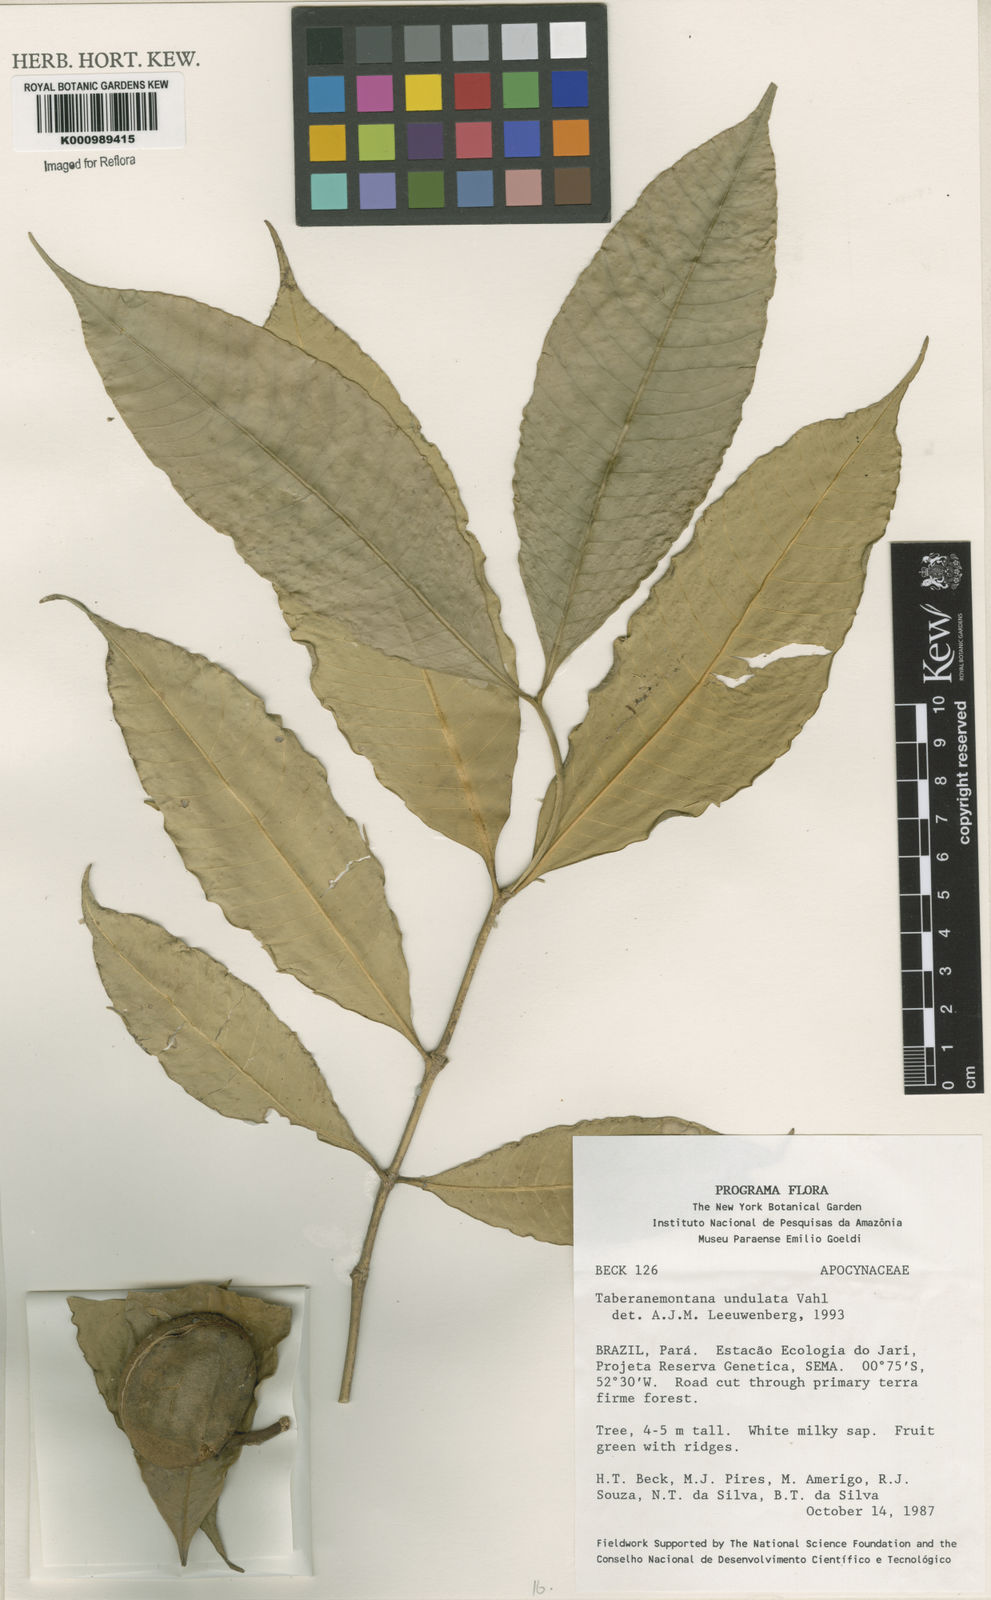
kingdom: Plantae
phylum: Tracheophyta
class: Magnoliopsida
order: Gentianales
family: Apocynaceae
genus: Tabernaemontana
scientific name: Tabernaemontana undulata
